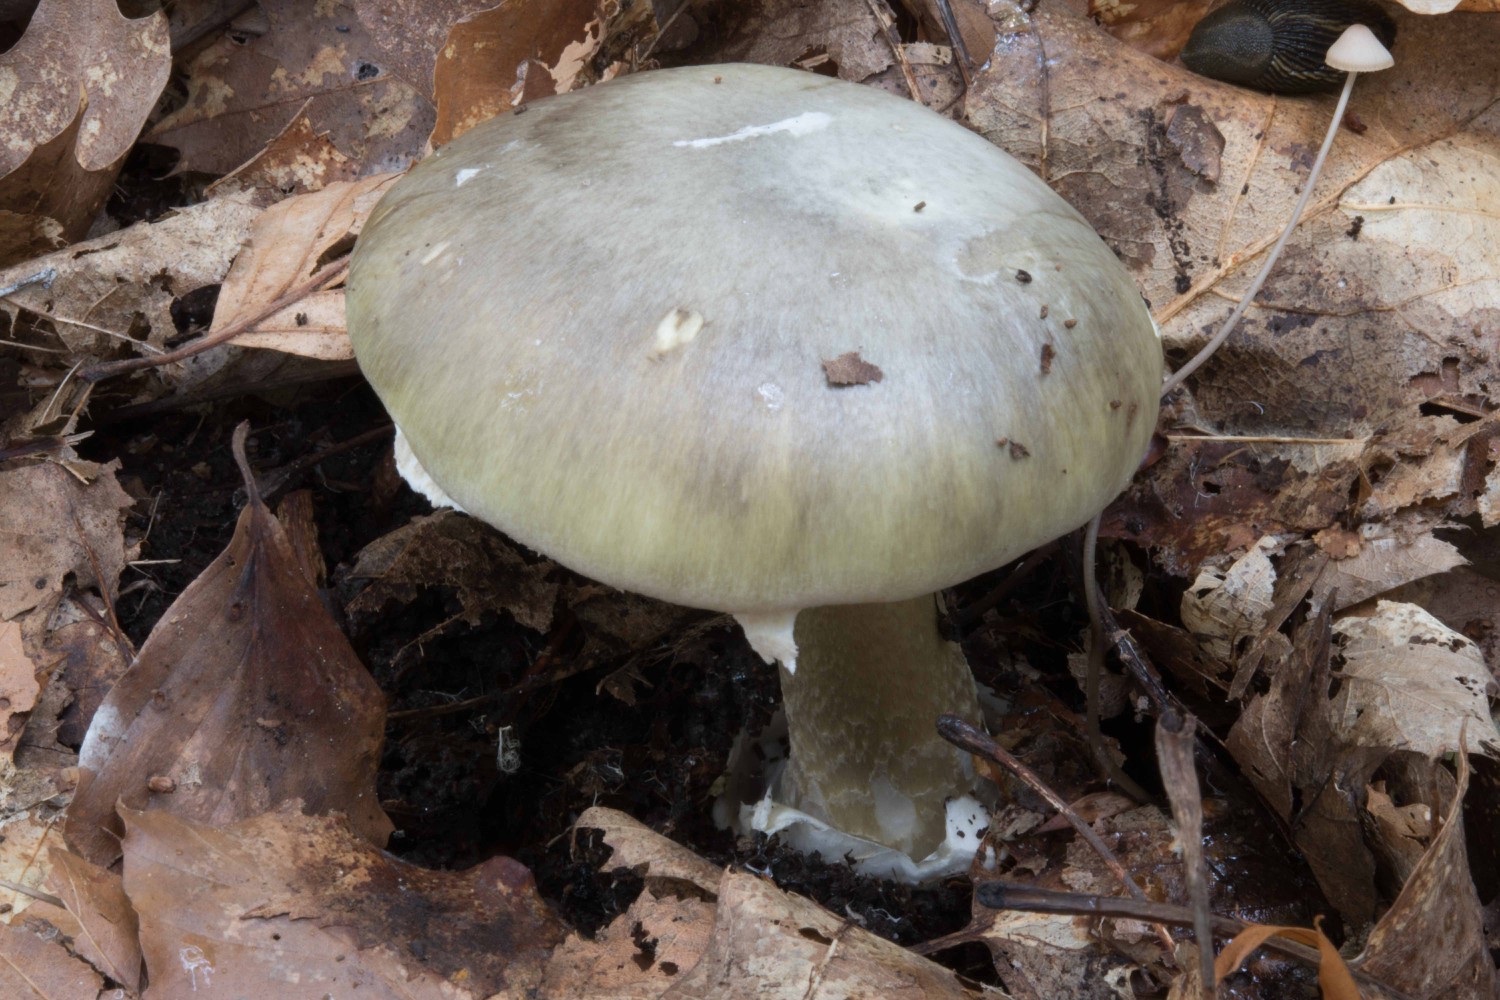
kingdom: Fungi
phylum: Basidiomycota
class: Agaricomycetes
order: Agaricales
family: Amanitaceae
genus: Amanita
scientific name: Amanita phalloides
